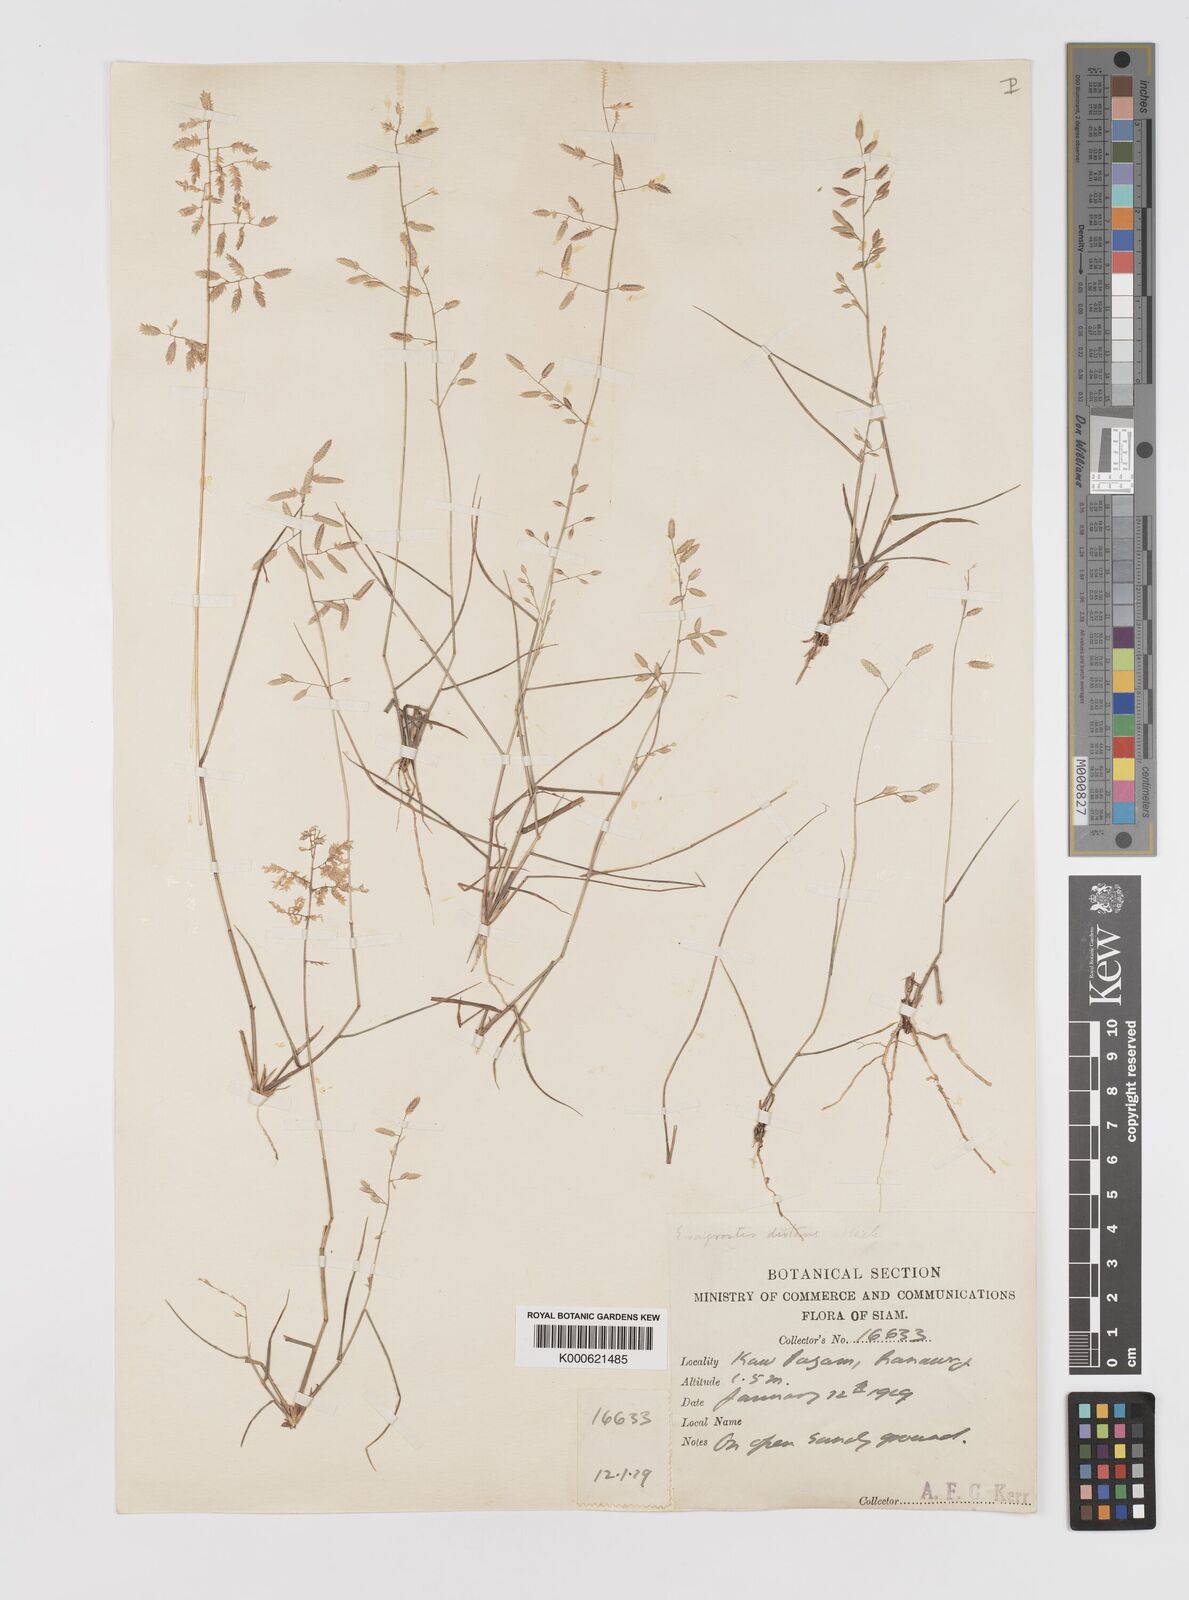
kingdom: Plantae
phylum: Tracheophyta
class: Liliopsida
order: Poales
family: Poaceae
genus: Eragrostis
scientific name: Eragrostis subsecunda
